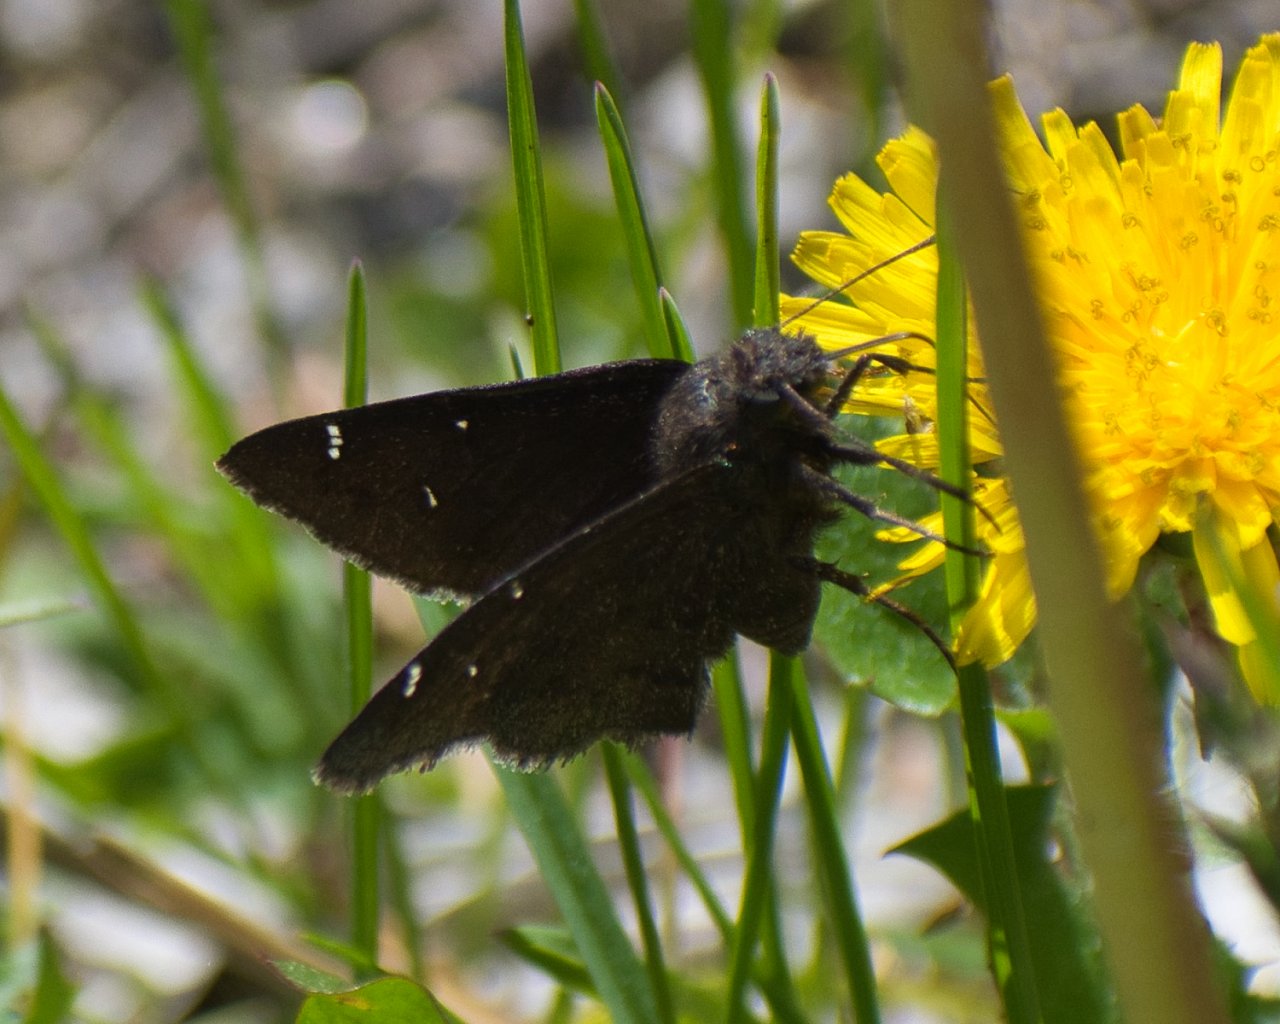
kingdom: Animalia
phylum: Arthropoda
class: Insecta
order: Lepidoptera
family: Hesperiidae
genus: Autochton
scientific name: Autochton
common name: Northern Cloudywing
